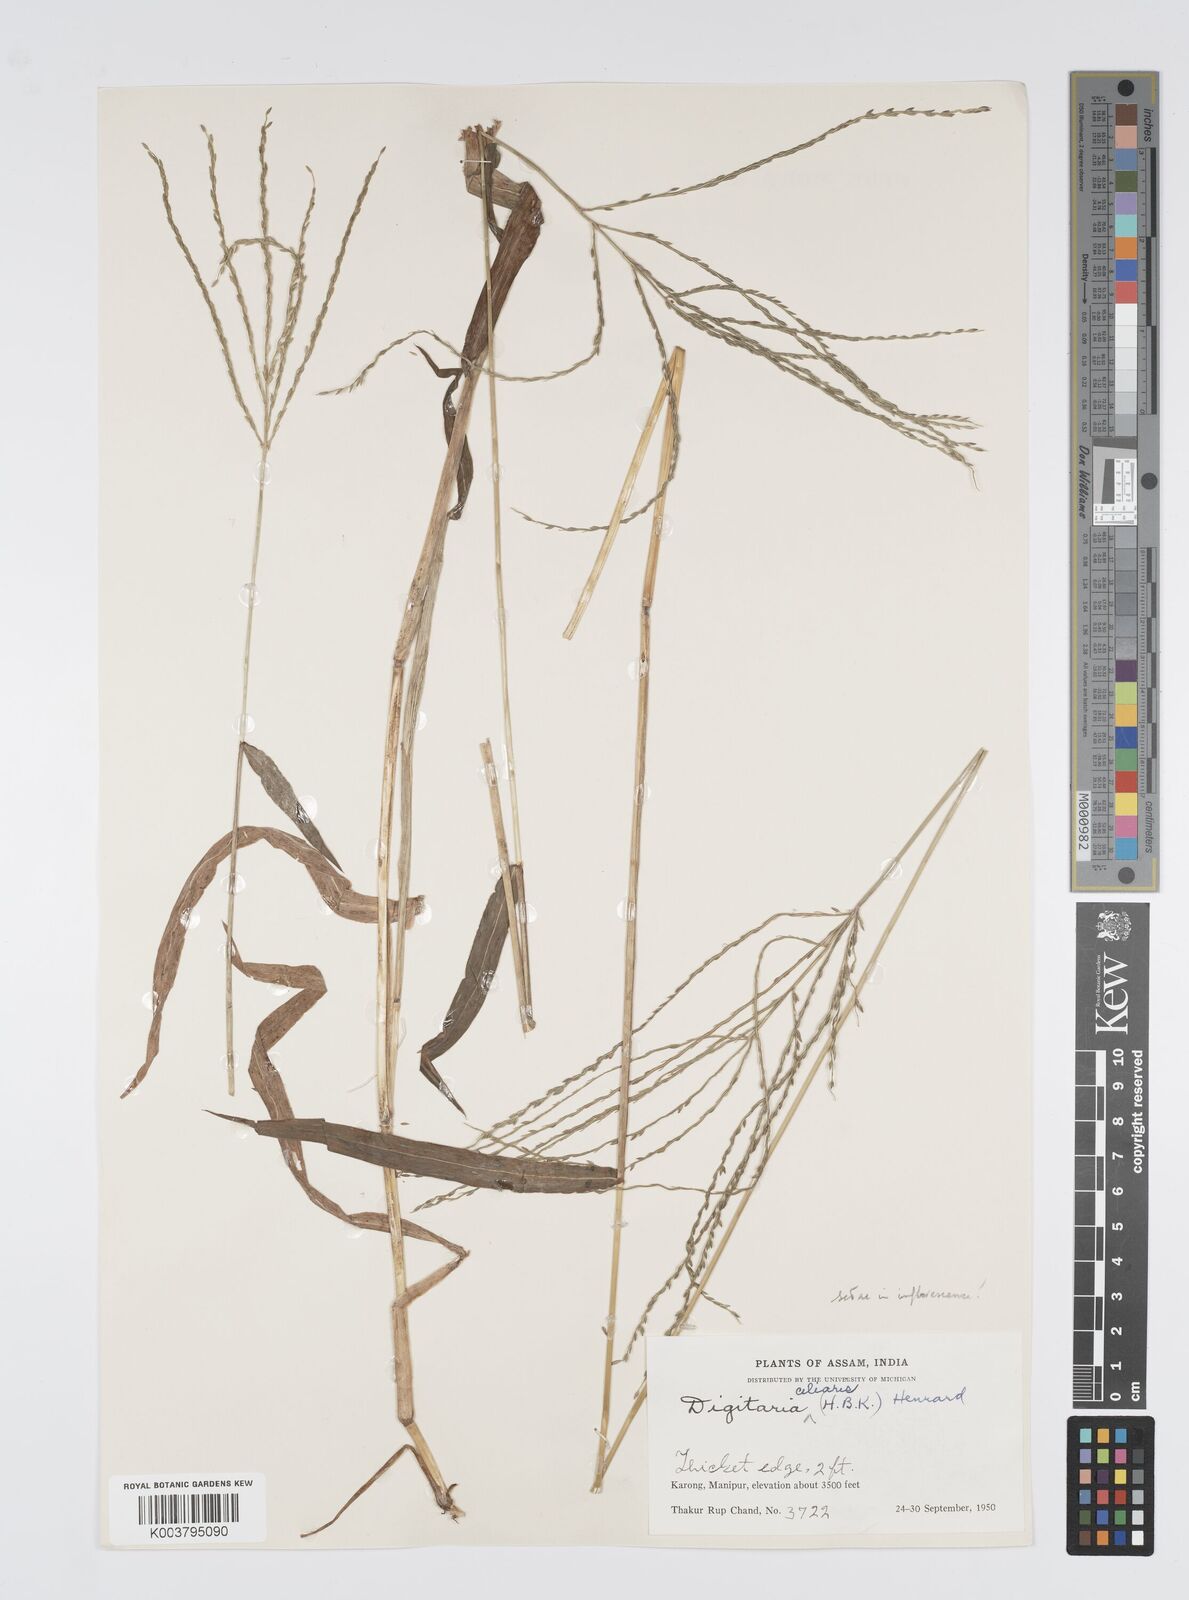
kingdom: Plantae
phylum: Tracheophyta
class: Liliopsida
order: Poales
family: Poaceae
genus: Digitaria
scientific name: Digitaria setigera
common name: East indian crabgrass
